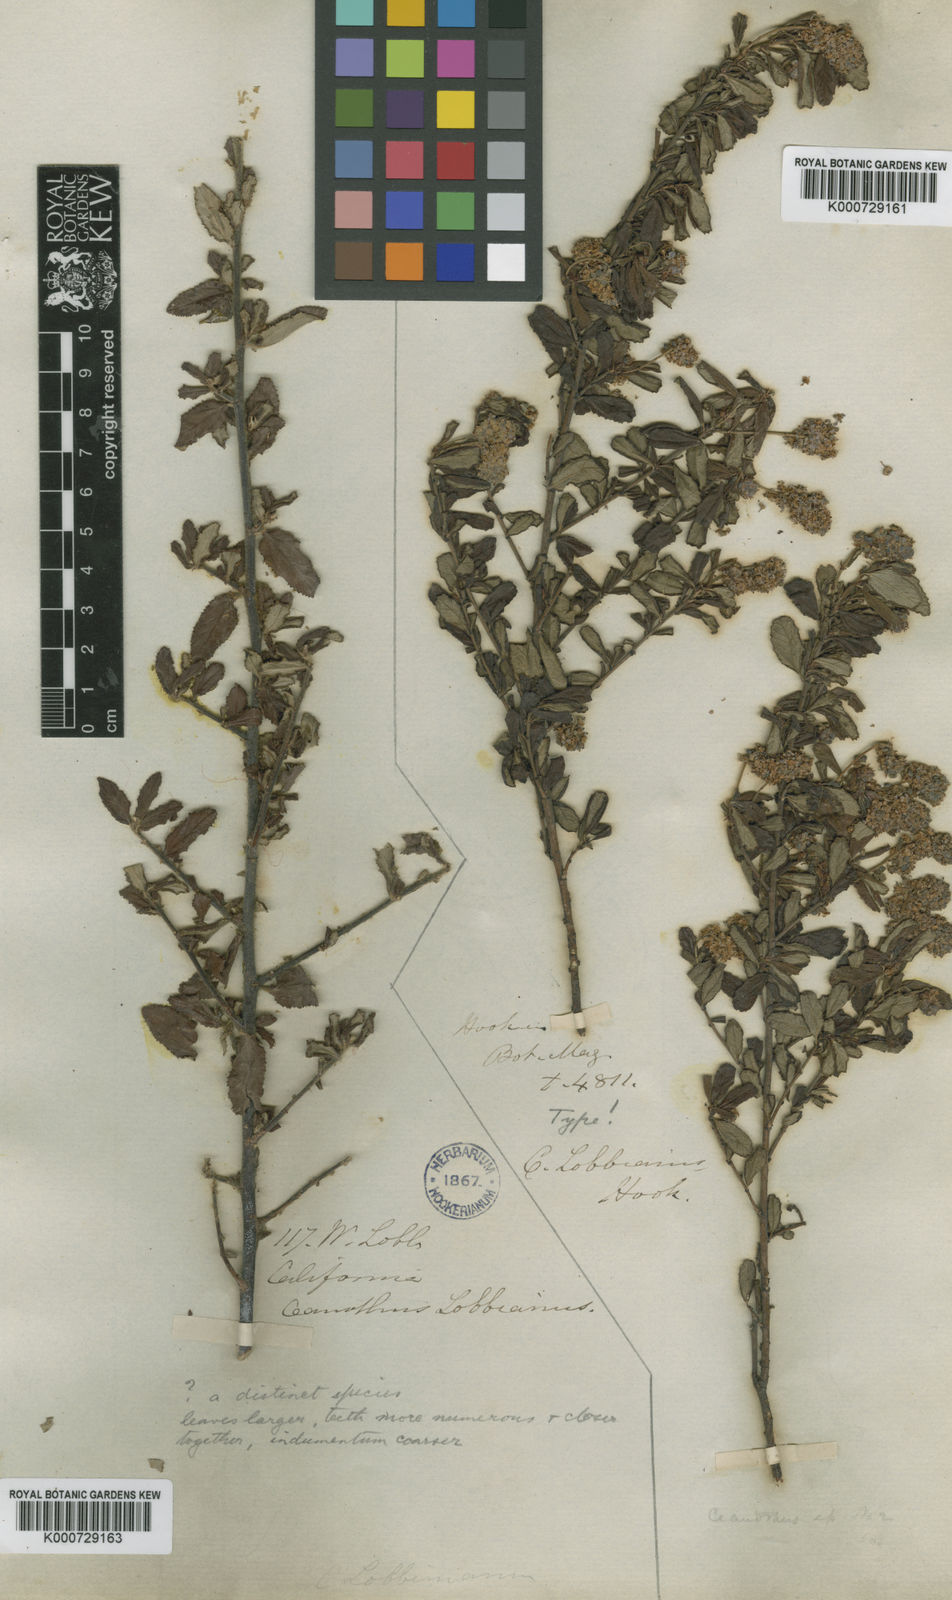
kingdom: Plantae
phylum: Tracheophyta
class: Magnoliopsida
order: Rosales
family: Rhamnaceae
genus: Ceanothus
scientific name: Ceanothus lobbianus
